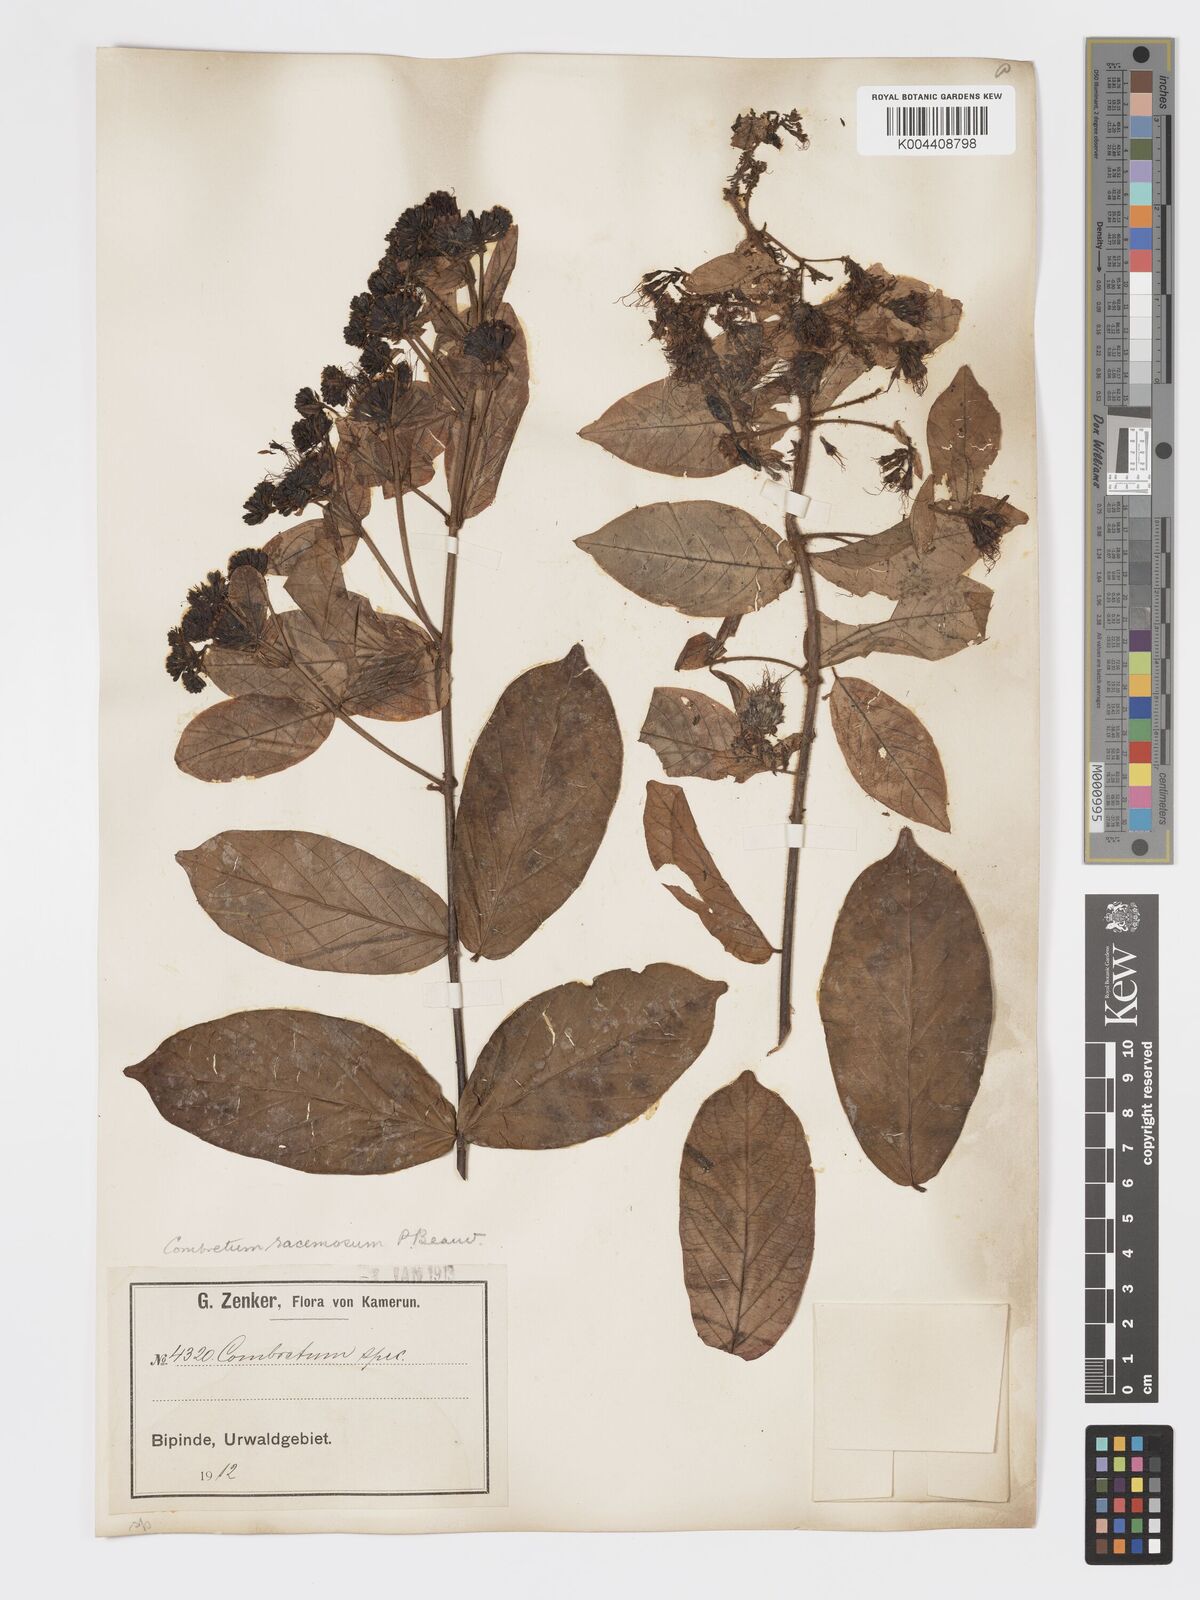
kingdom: Plantae
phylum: Tracheophyta
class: Magnoliopsida
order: Myrtales
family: Combretaceae
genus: Combretum
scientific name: Combretum racemosum
